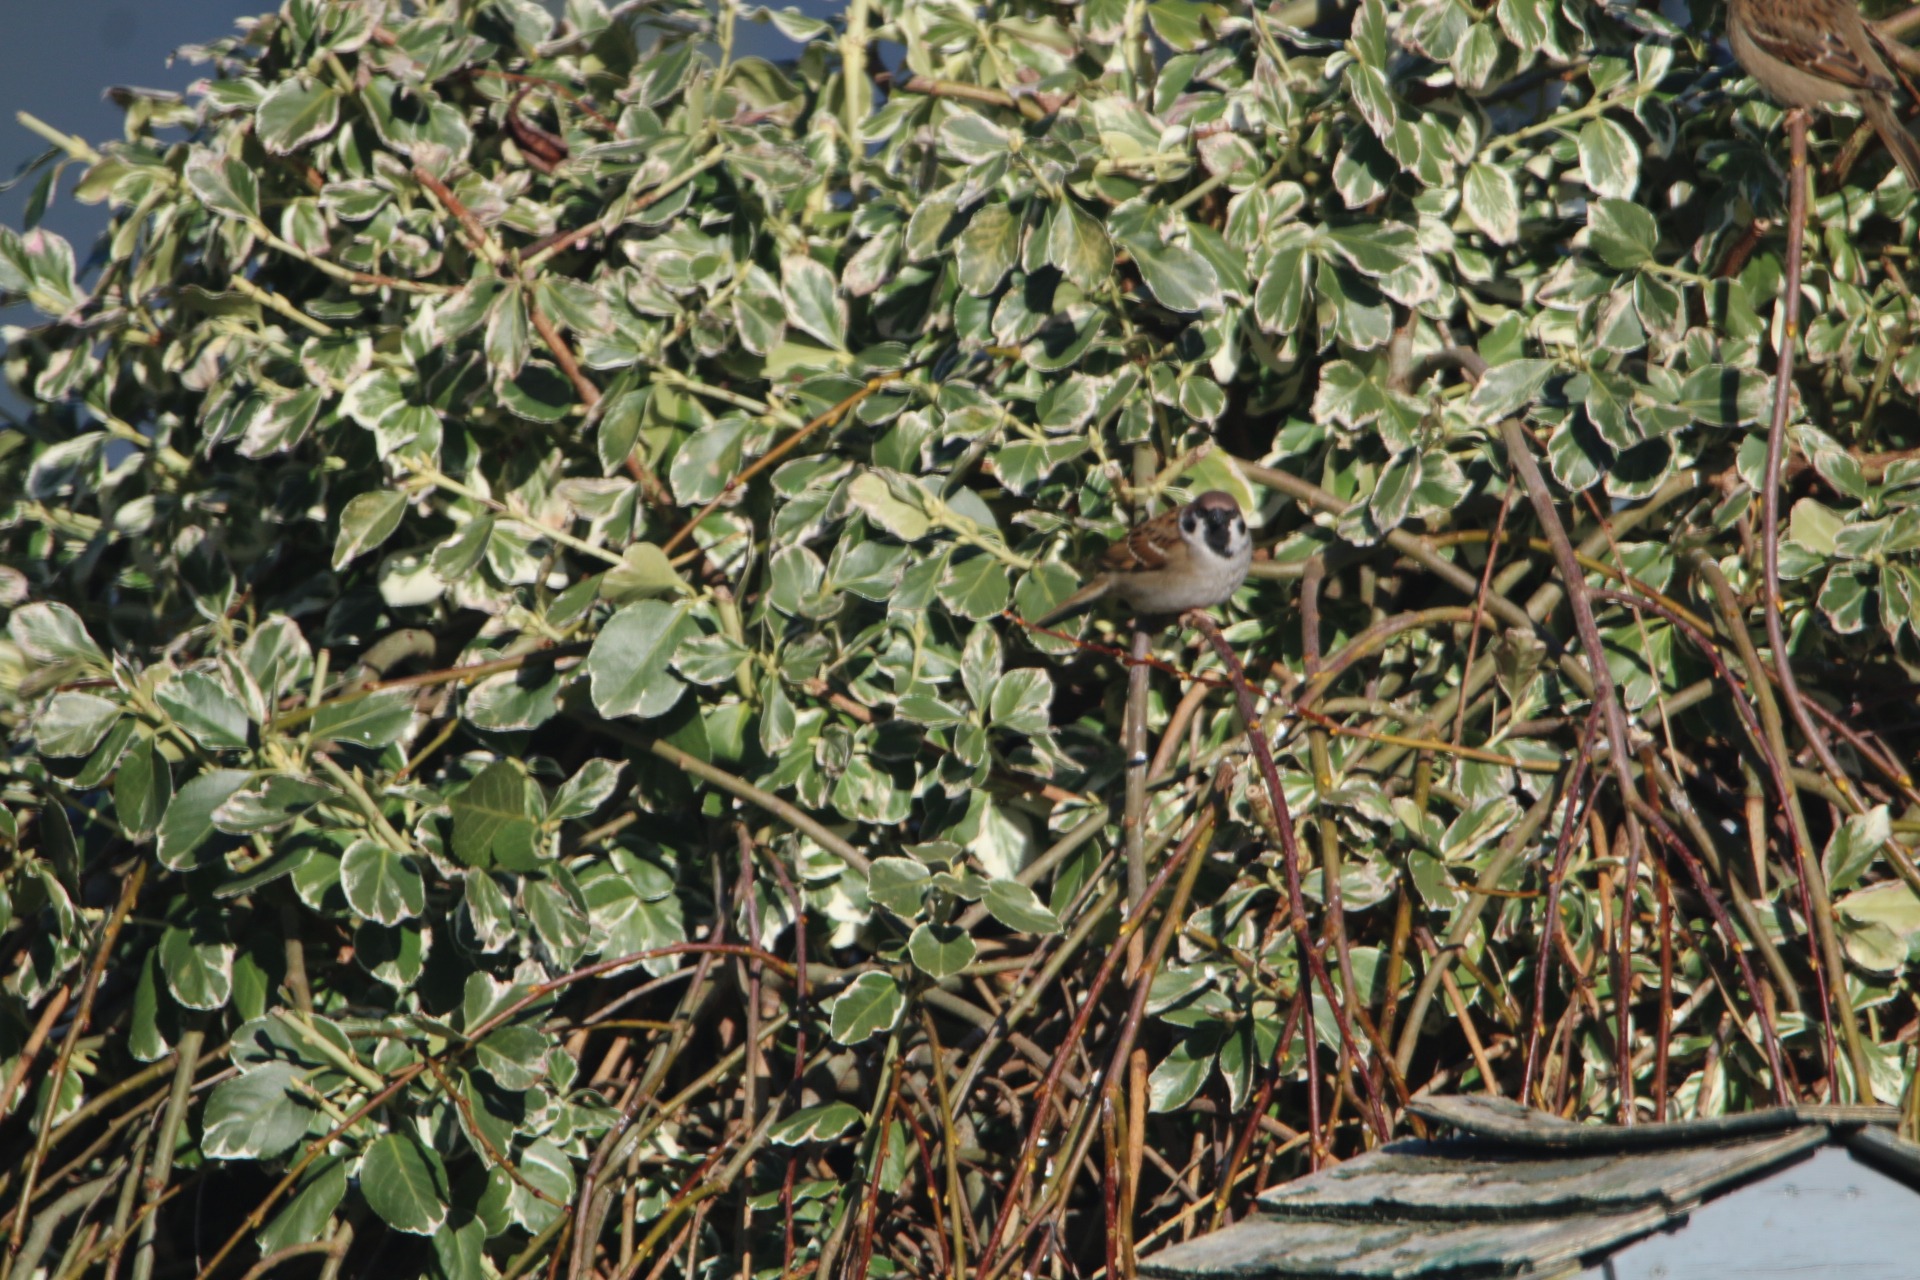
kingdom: Animalia
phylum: Chordata
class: Aves
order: Passeriformes
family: Passeridae
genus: Passer
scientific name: Passer montanus
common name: Skovspurv
